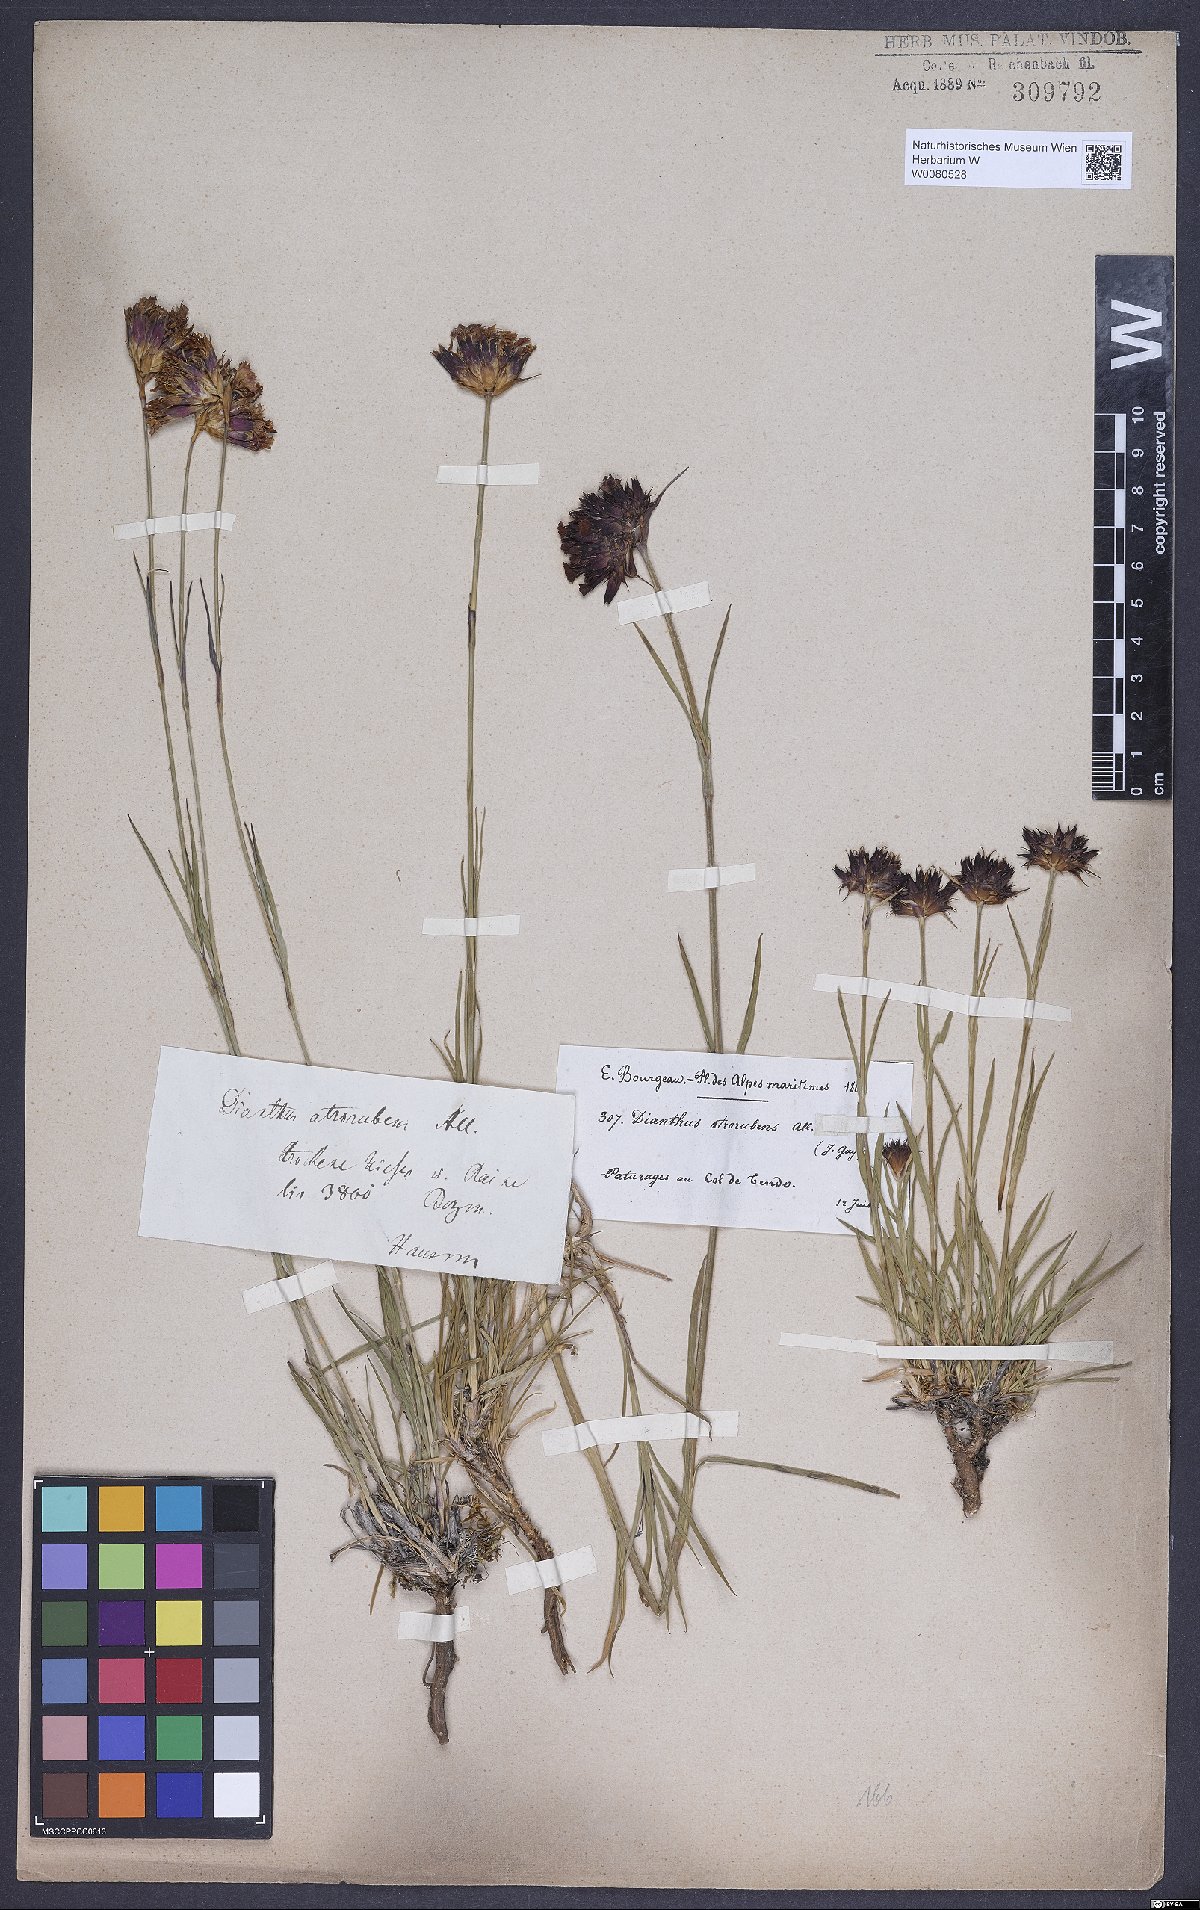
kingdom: Plantae
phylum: Tracheophyta
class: Magnoliopsida
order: Caryophyllales
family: Caryophyllaceae
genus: Dianthus
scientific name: Dianthus carthusianorum
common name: Carthusian pink
